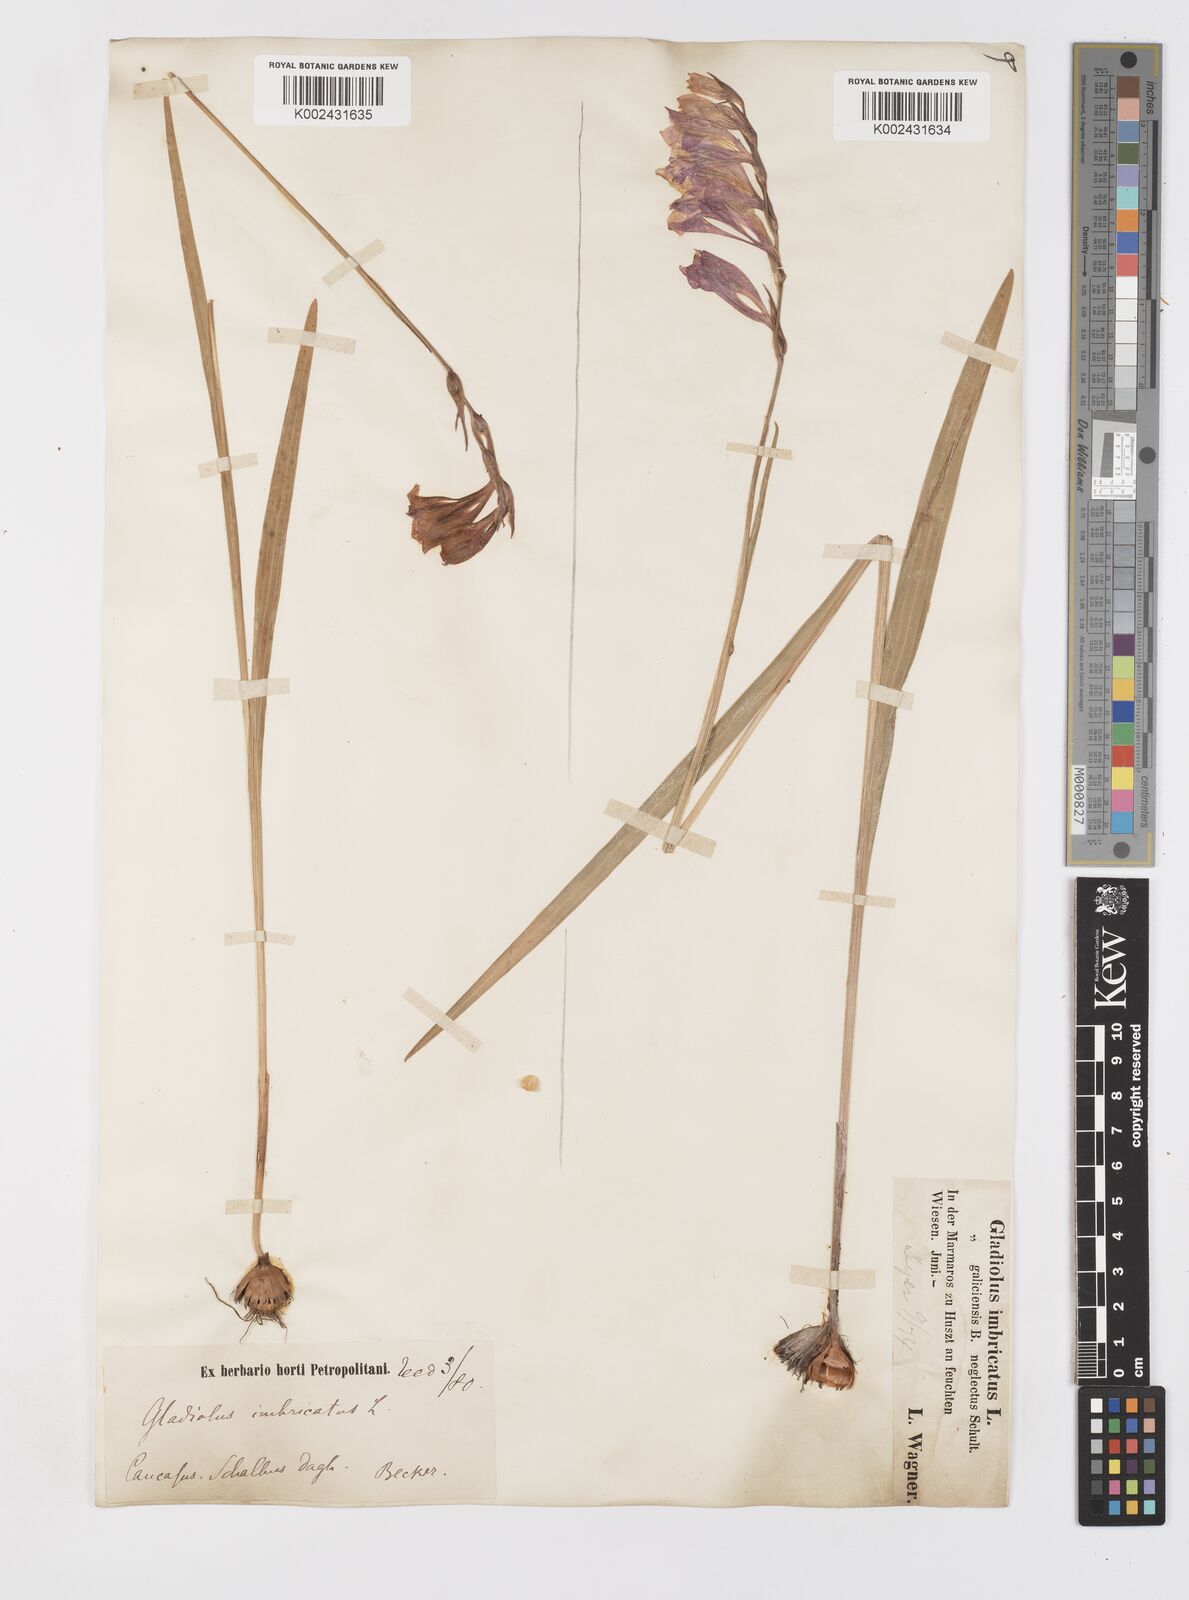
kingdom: Plantae
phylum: Tracheophyta
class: Liliopsida
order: Asparagales
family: Iridaceae
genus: Gladiolus
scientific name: Gladiolus imbricatus
